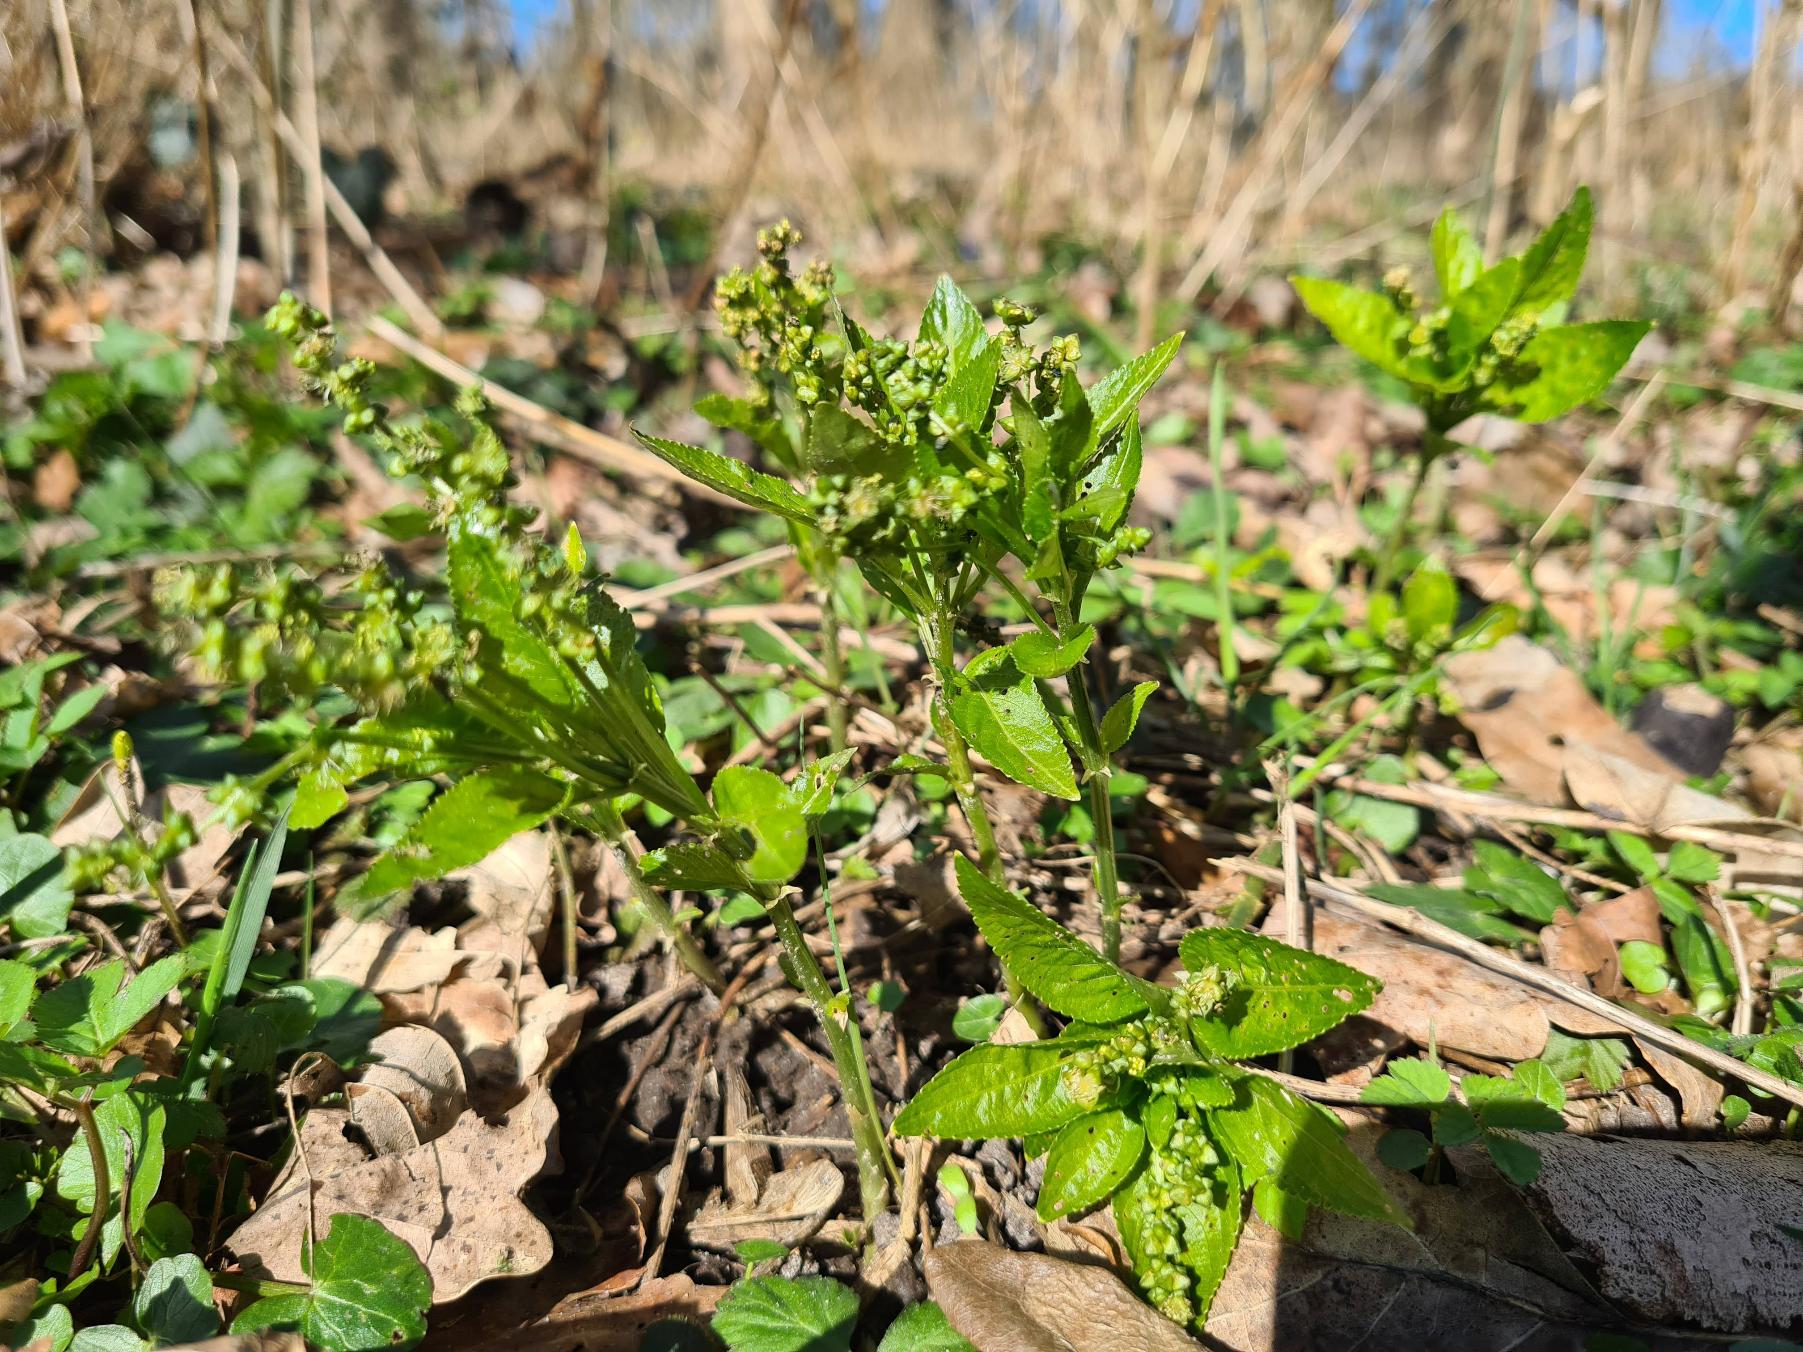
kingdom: Plantae
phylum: Tracheophyta
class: Magnoliopsida
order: Malpighiales
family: Euphorbiaceae
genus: Mercurialis
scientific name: Mercurialis perennis
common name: Almindelig bingelurt
